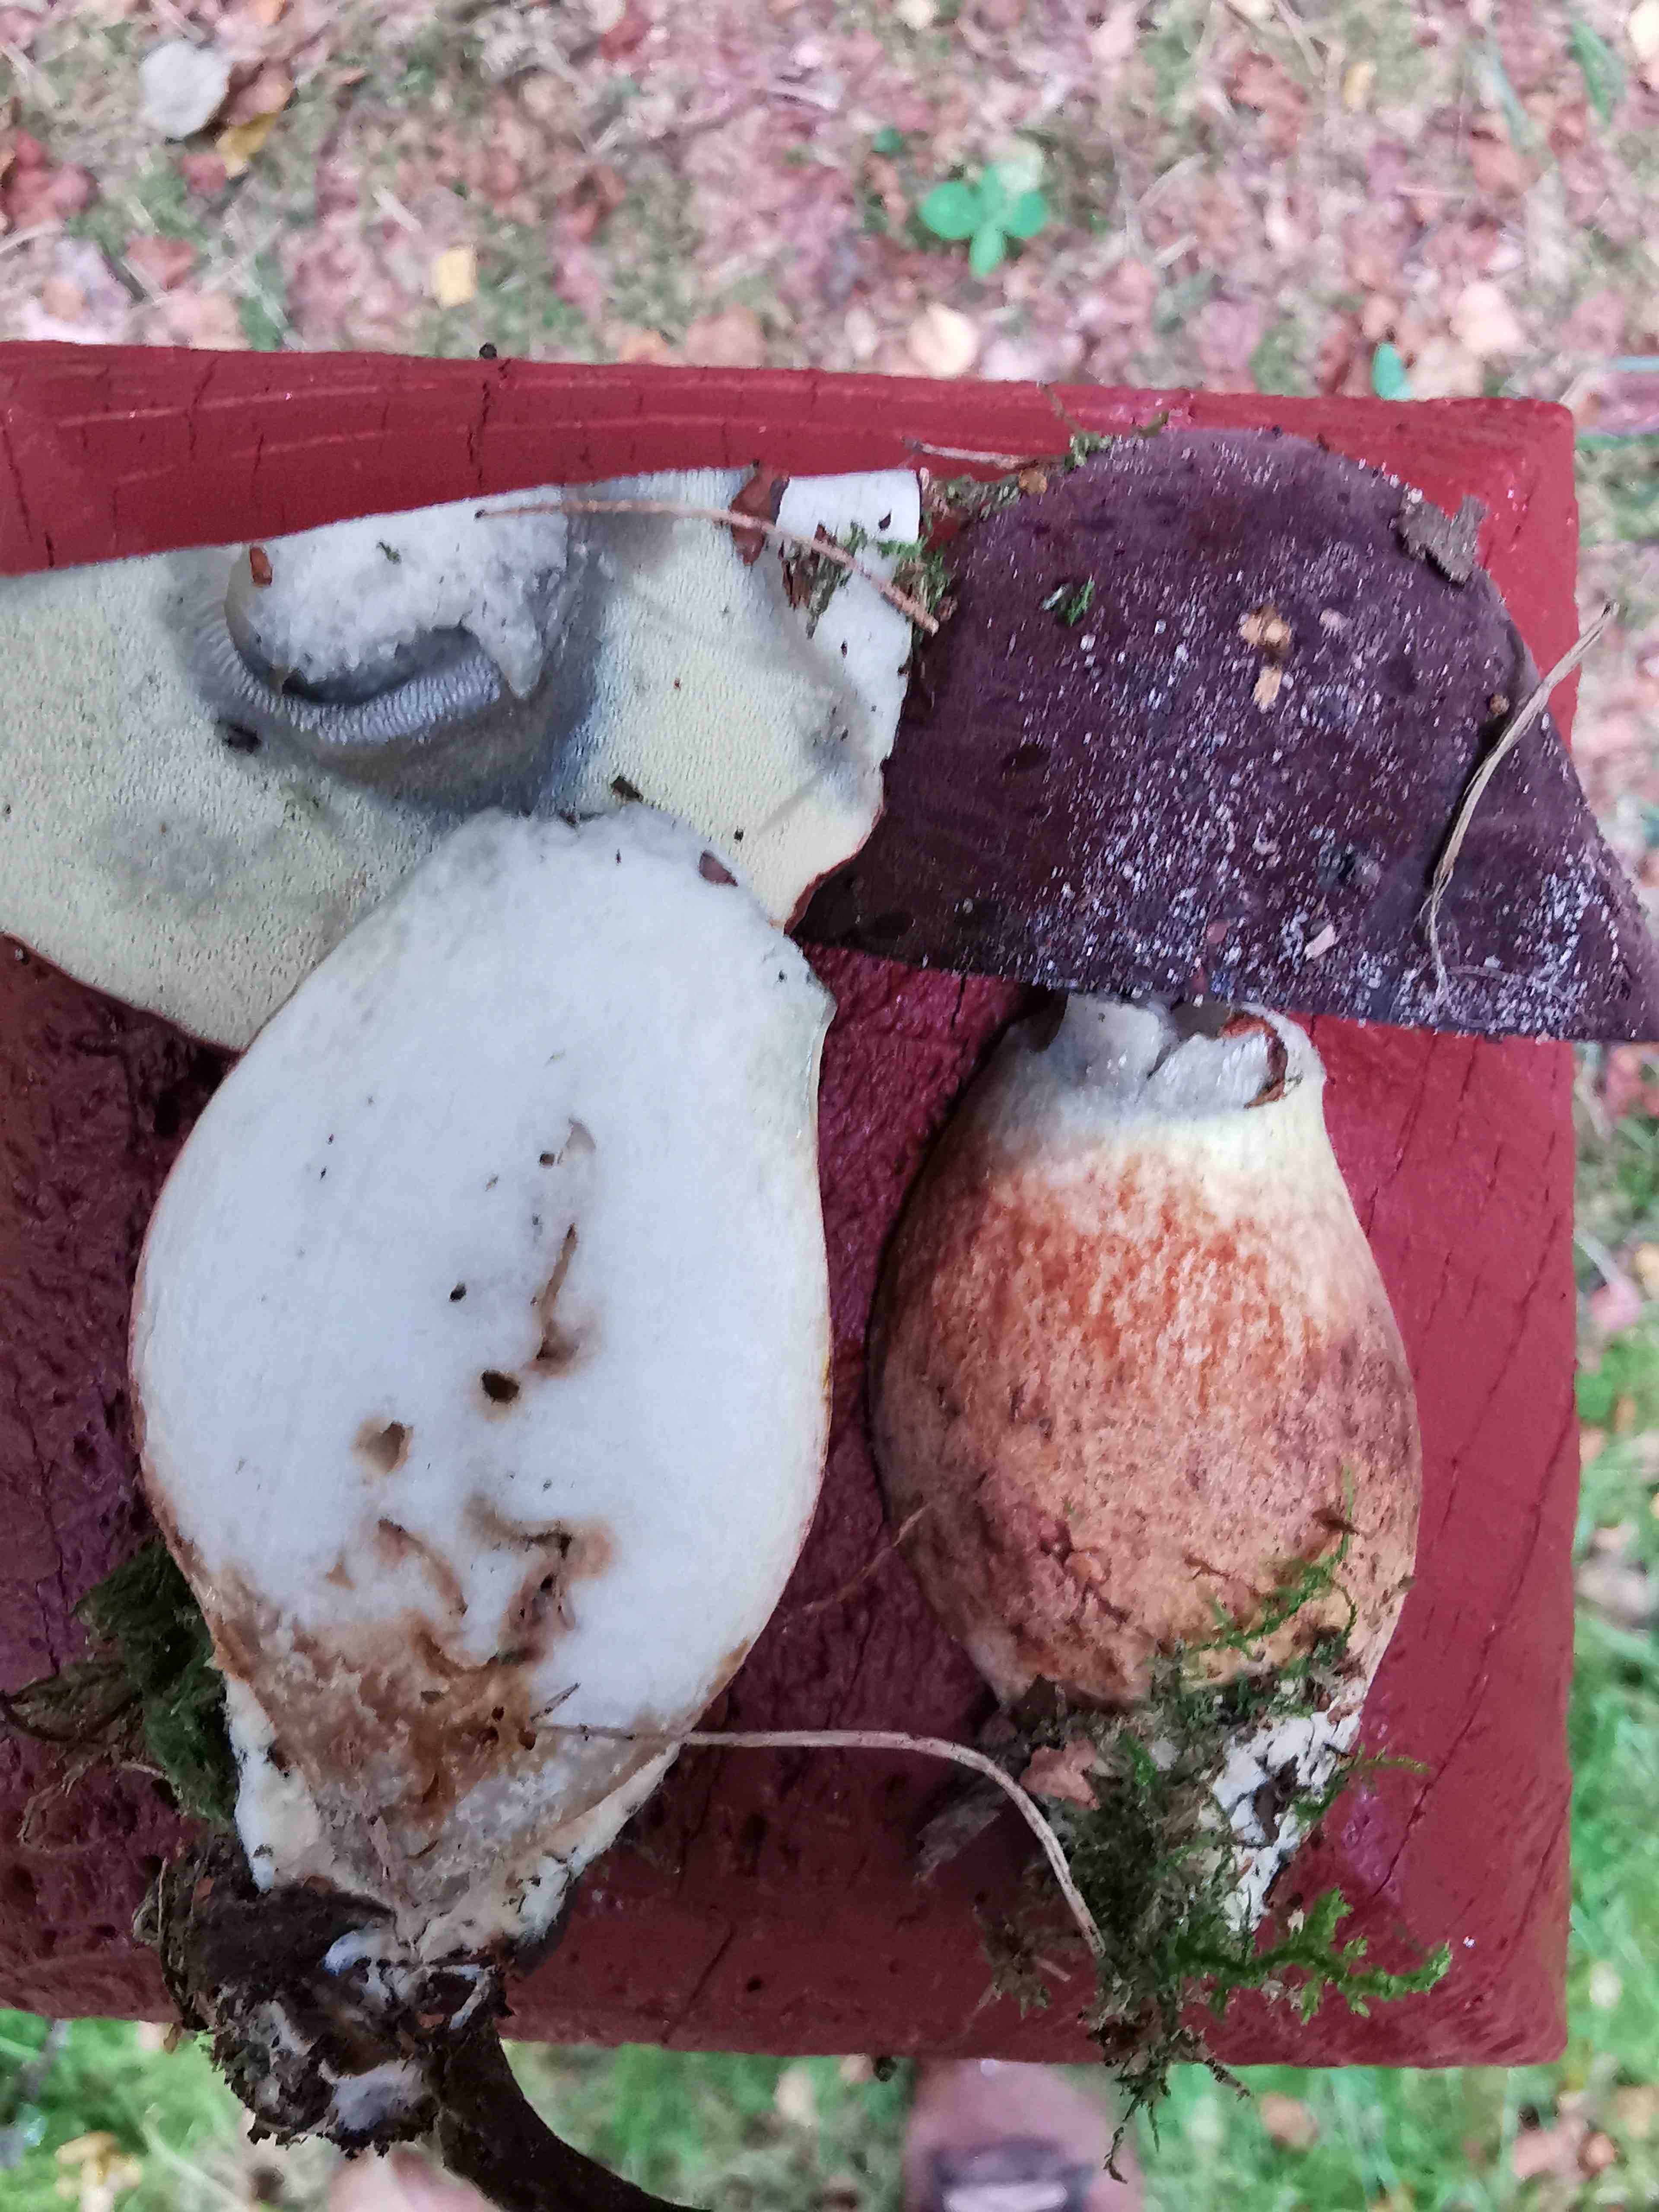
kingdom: Fungi
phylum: Basidiomycota
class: Agaricomycetes
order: Boletales
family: Boletaceae
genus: Imleria
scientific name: Imleria badia
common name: brunstokket rørhat
